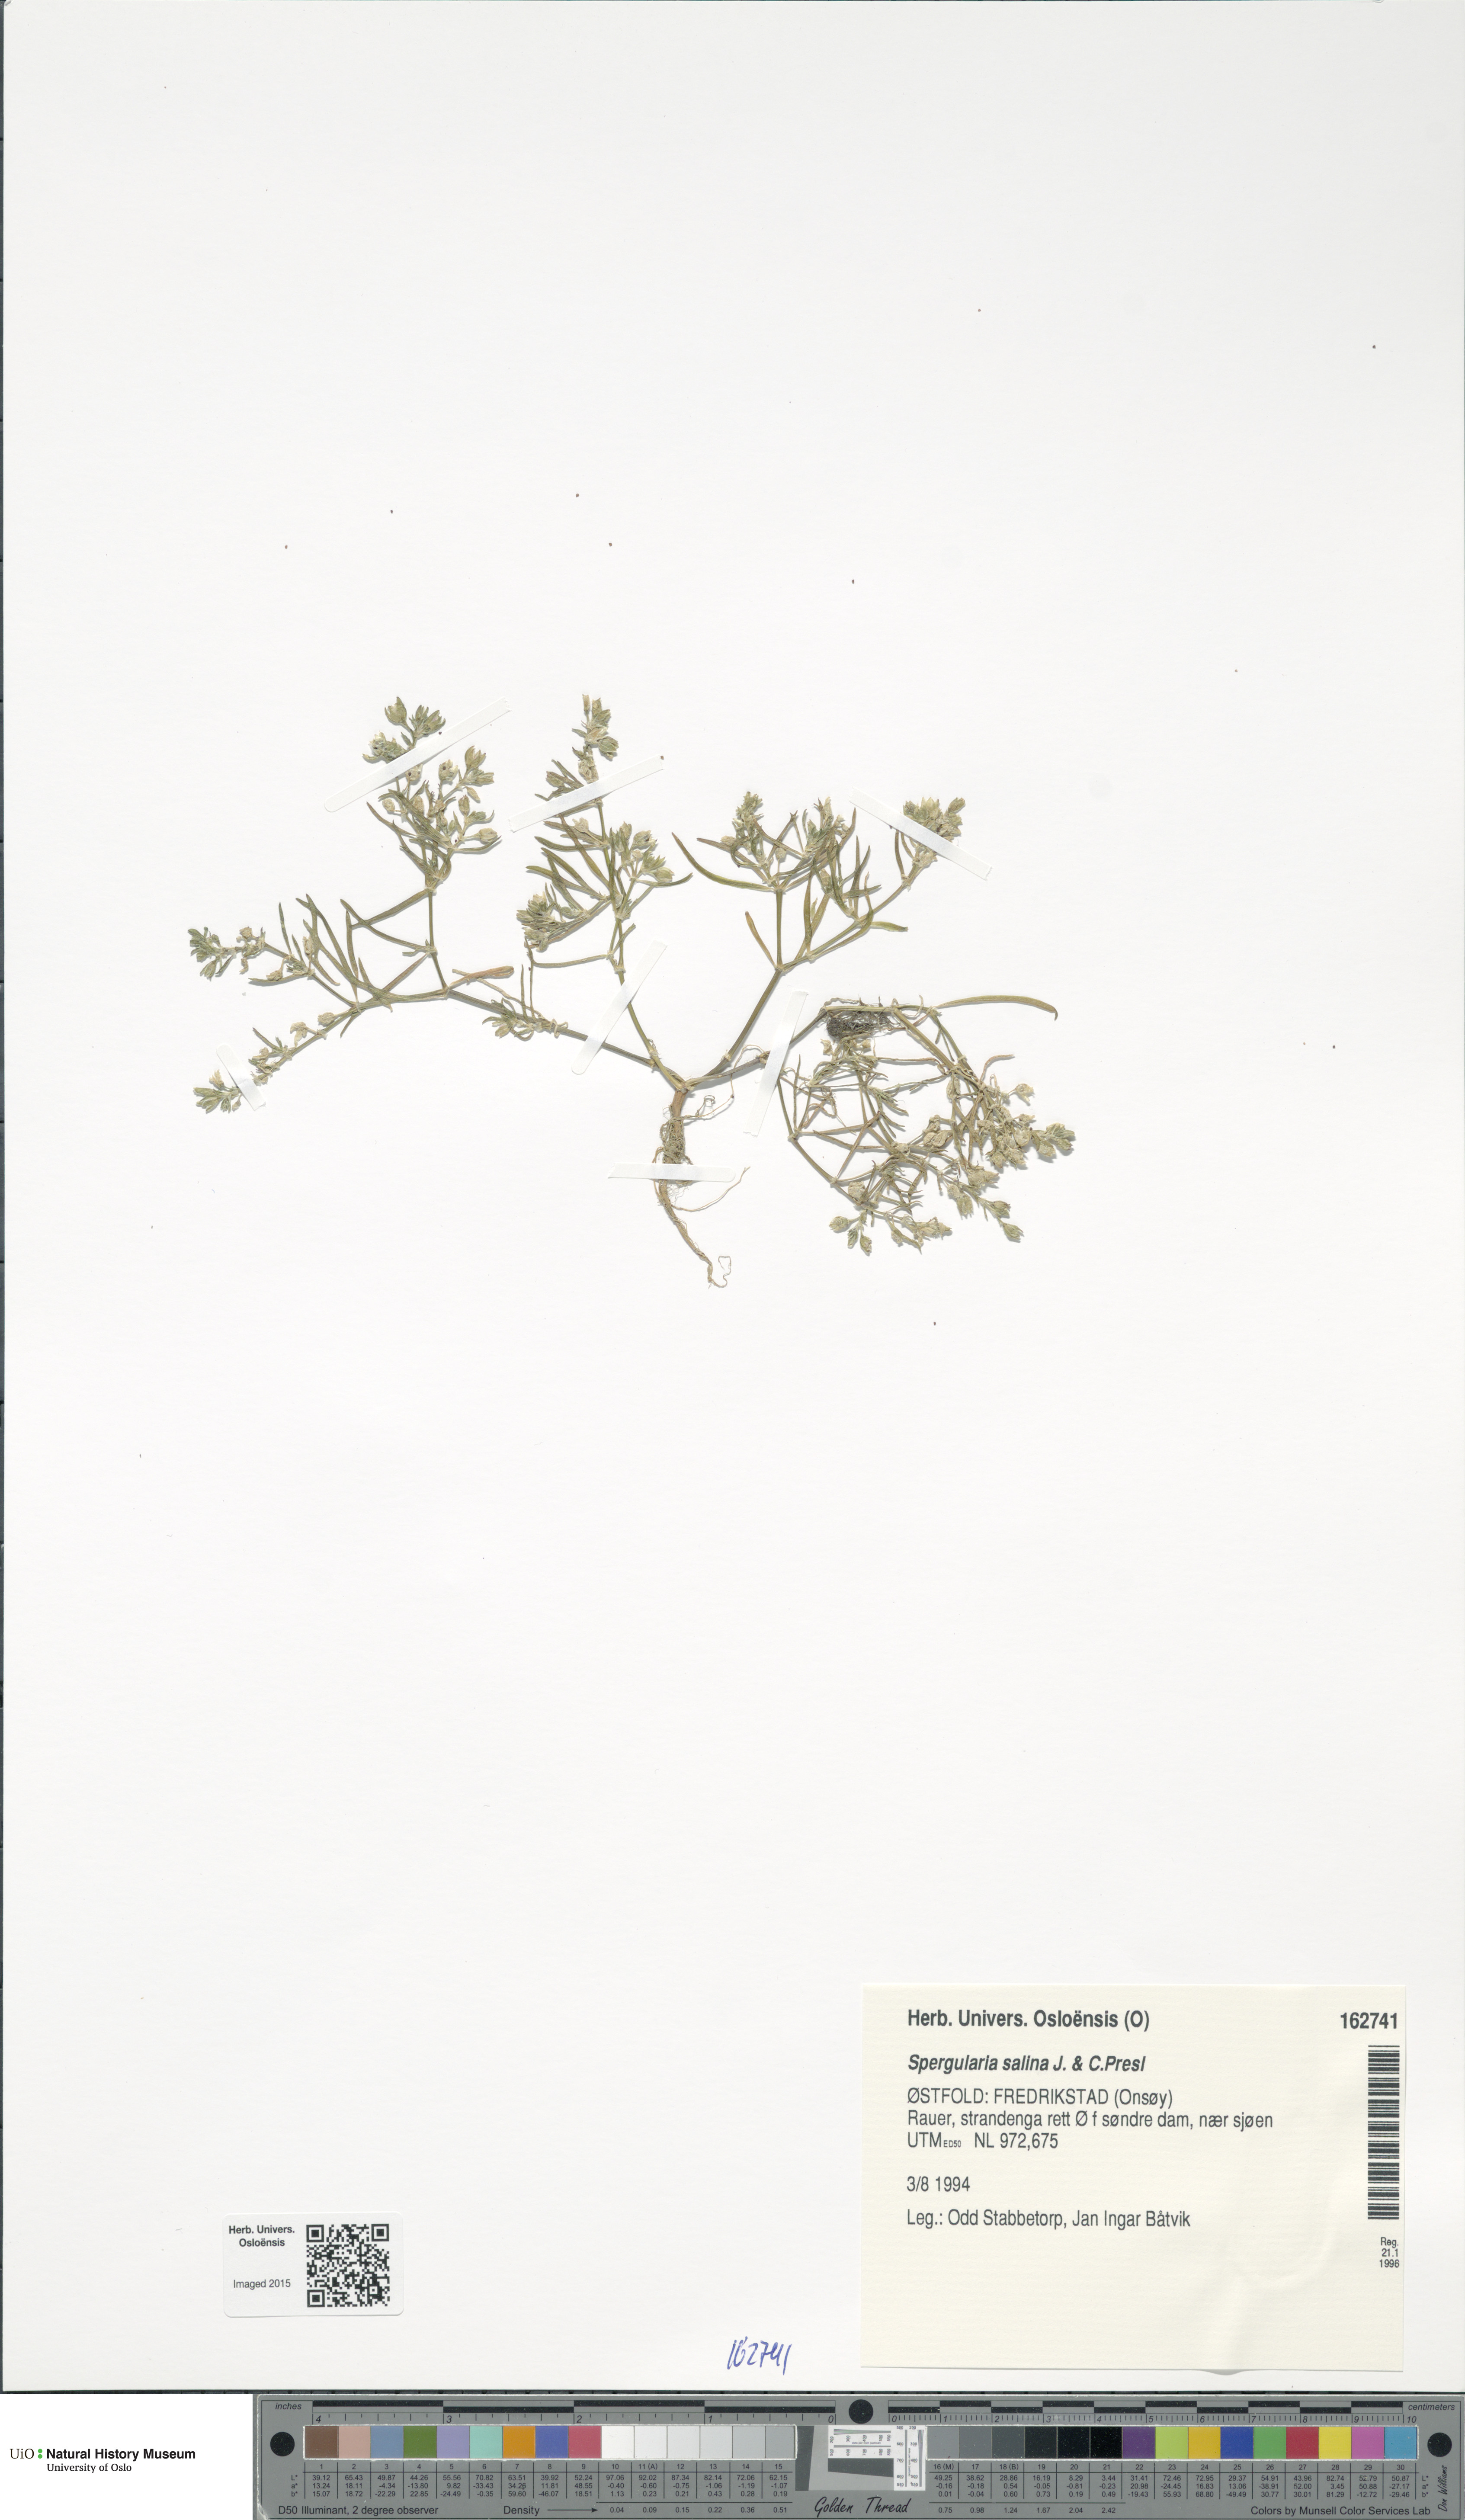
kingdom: Plantae
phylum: Tracheophyta
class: Magnoliopsida
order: Caryophyllales
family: Caryophyllaceae
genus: Spergularia
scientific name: Spergularia marina
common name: Lesser sea-spurrey
